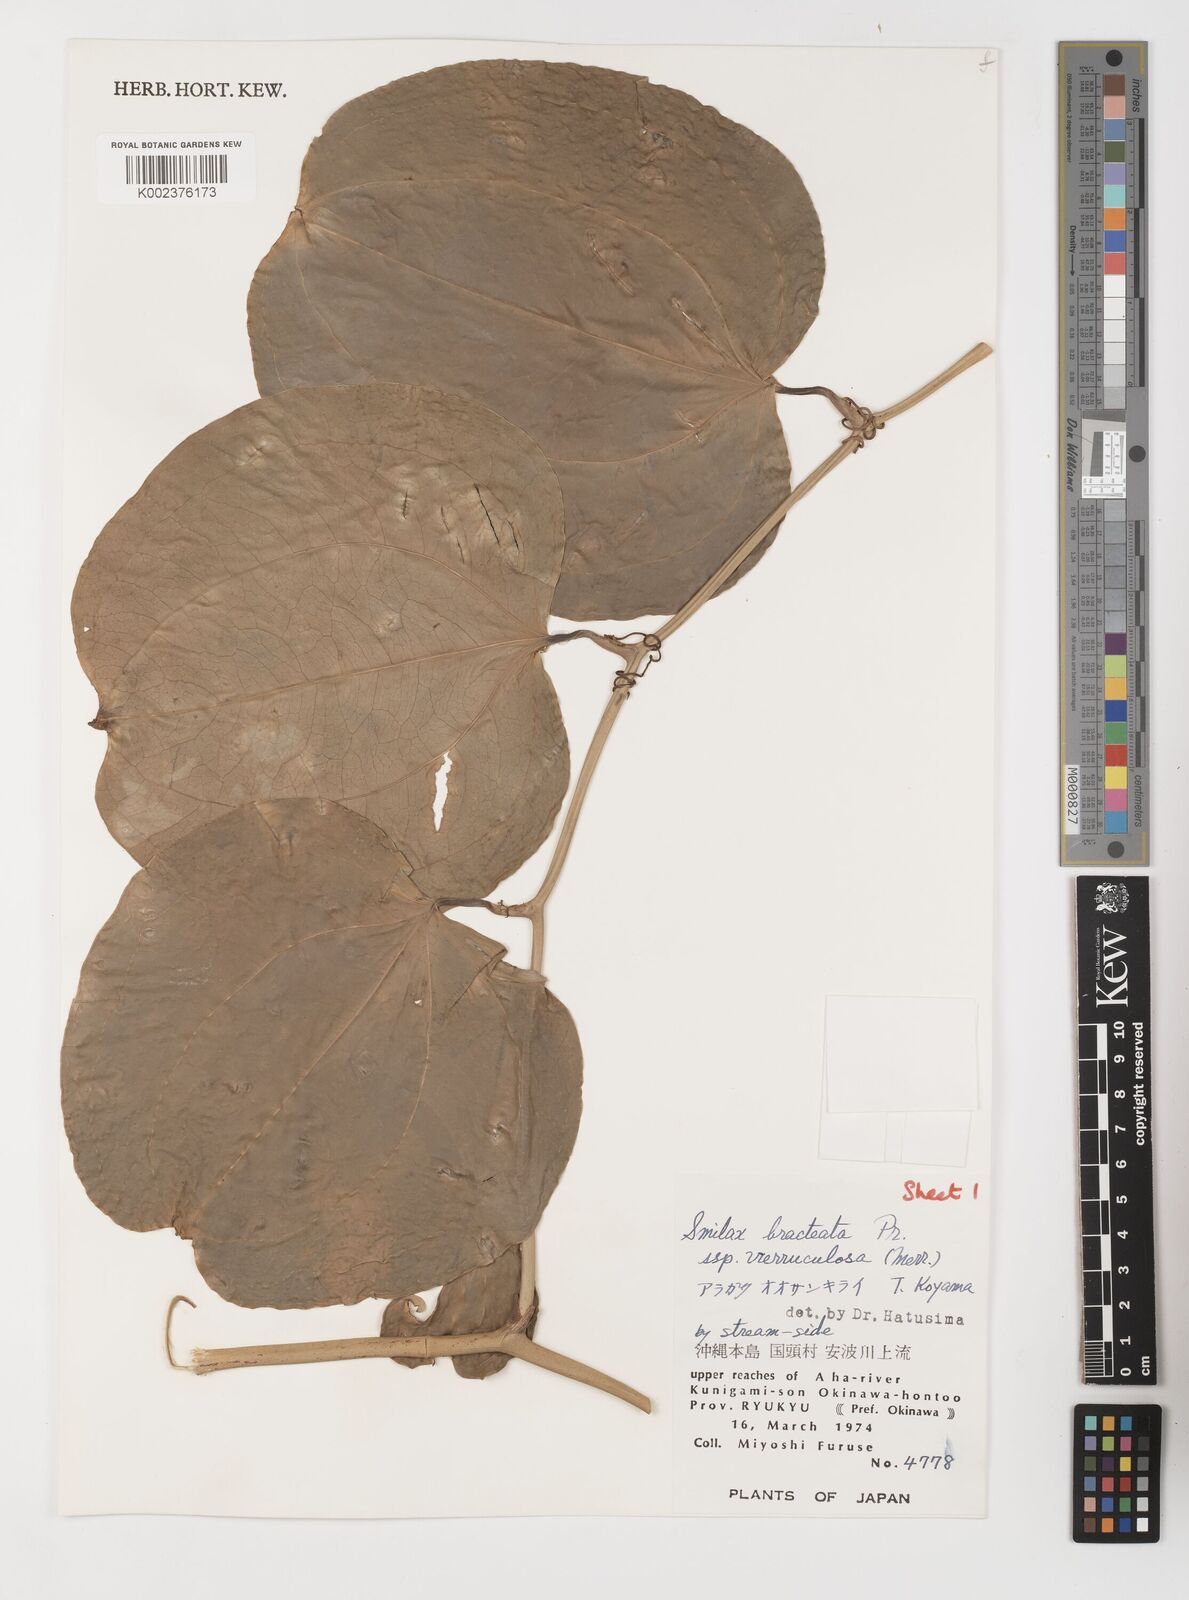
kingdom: Plantae
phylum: Tracheophyta
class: Liliopsida
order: Liliales
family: Smilacaceae
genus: Smilax
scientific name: Smilax aspericaulis
